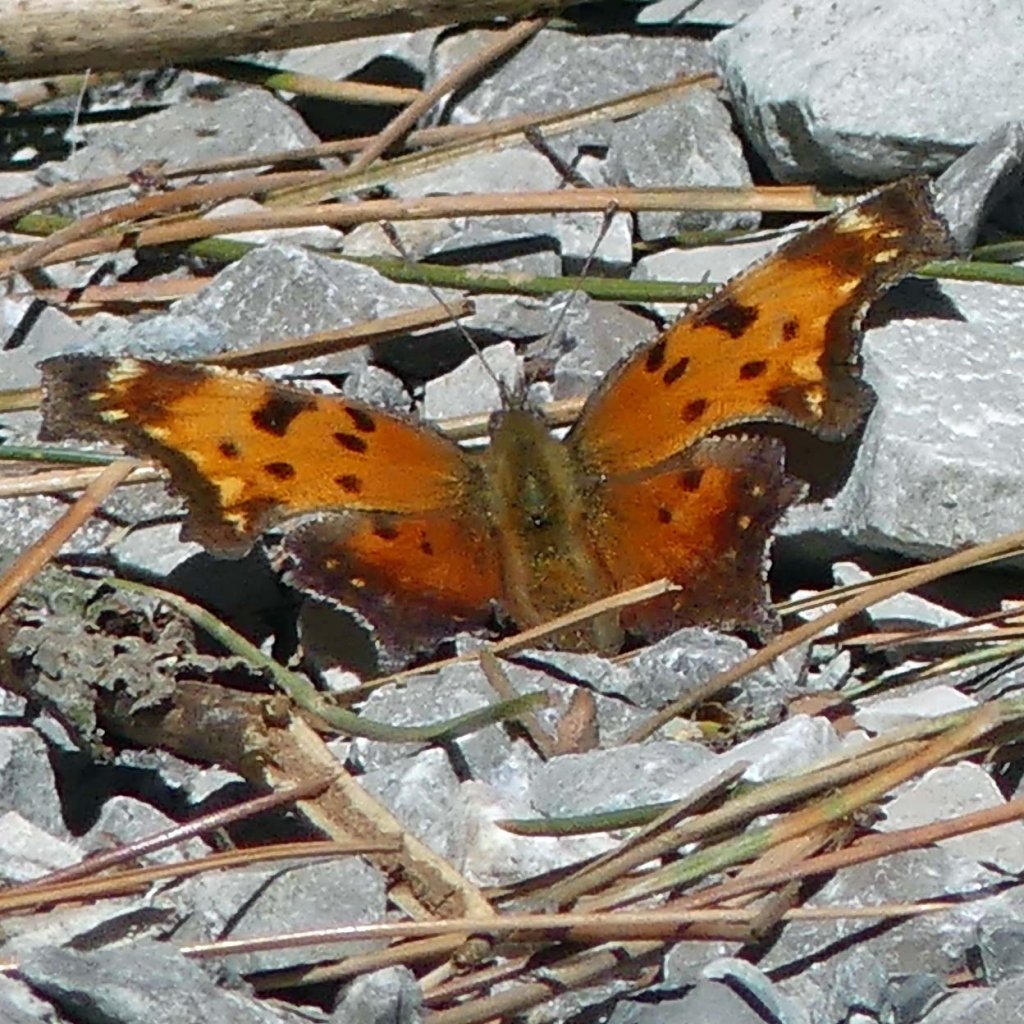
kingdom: Animalia
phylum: Arthropoda
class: Insecta
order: Lepidoptera
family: Nymphalidae
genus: Polygonia
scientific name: Polygonia comma
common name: Eastern Comma
